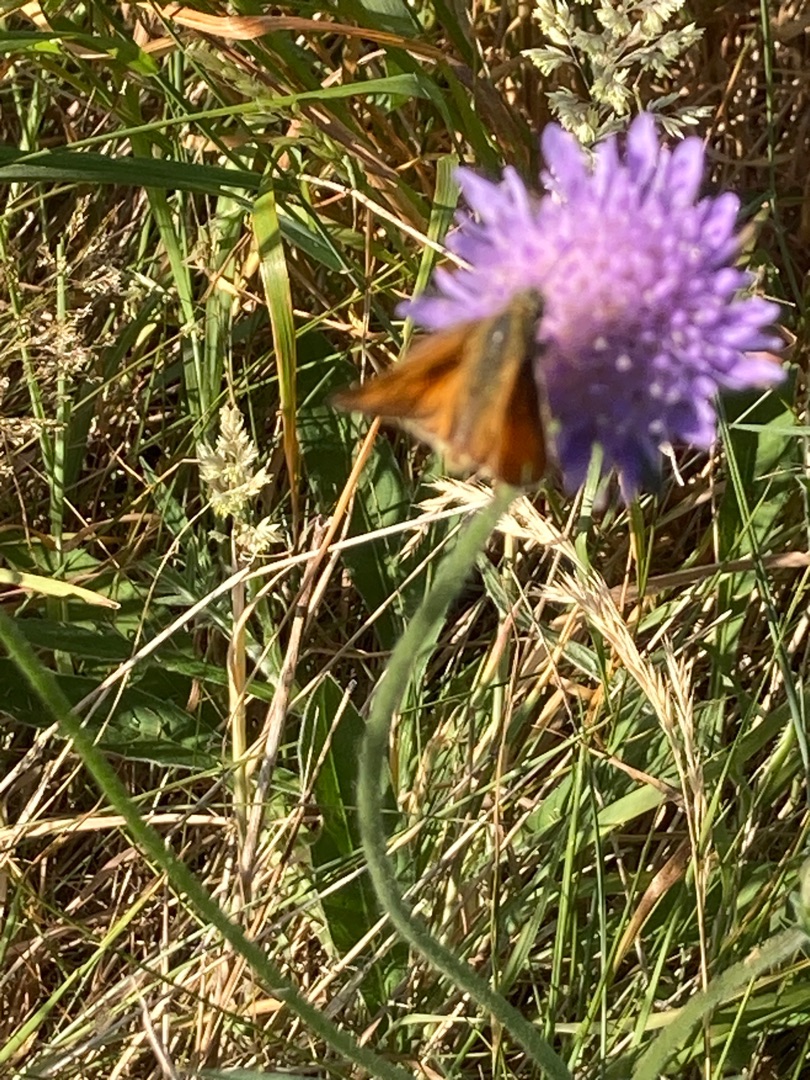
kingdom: Animalia
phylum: Arthropoda
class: Insecta
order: Lepidoptera
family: Hesperiidae
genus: Ochlodes
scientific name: Ochlodes venata
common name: Stor bredpande
